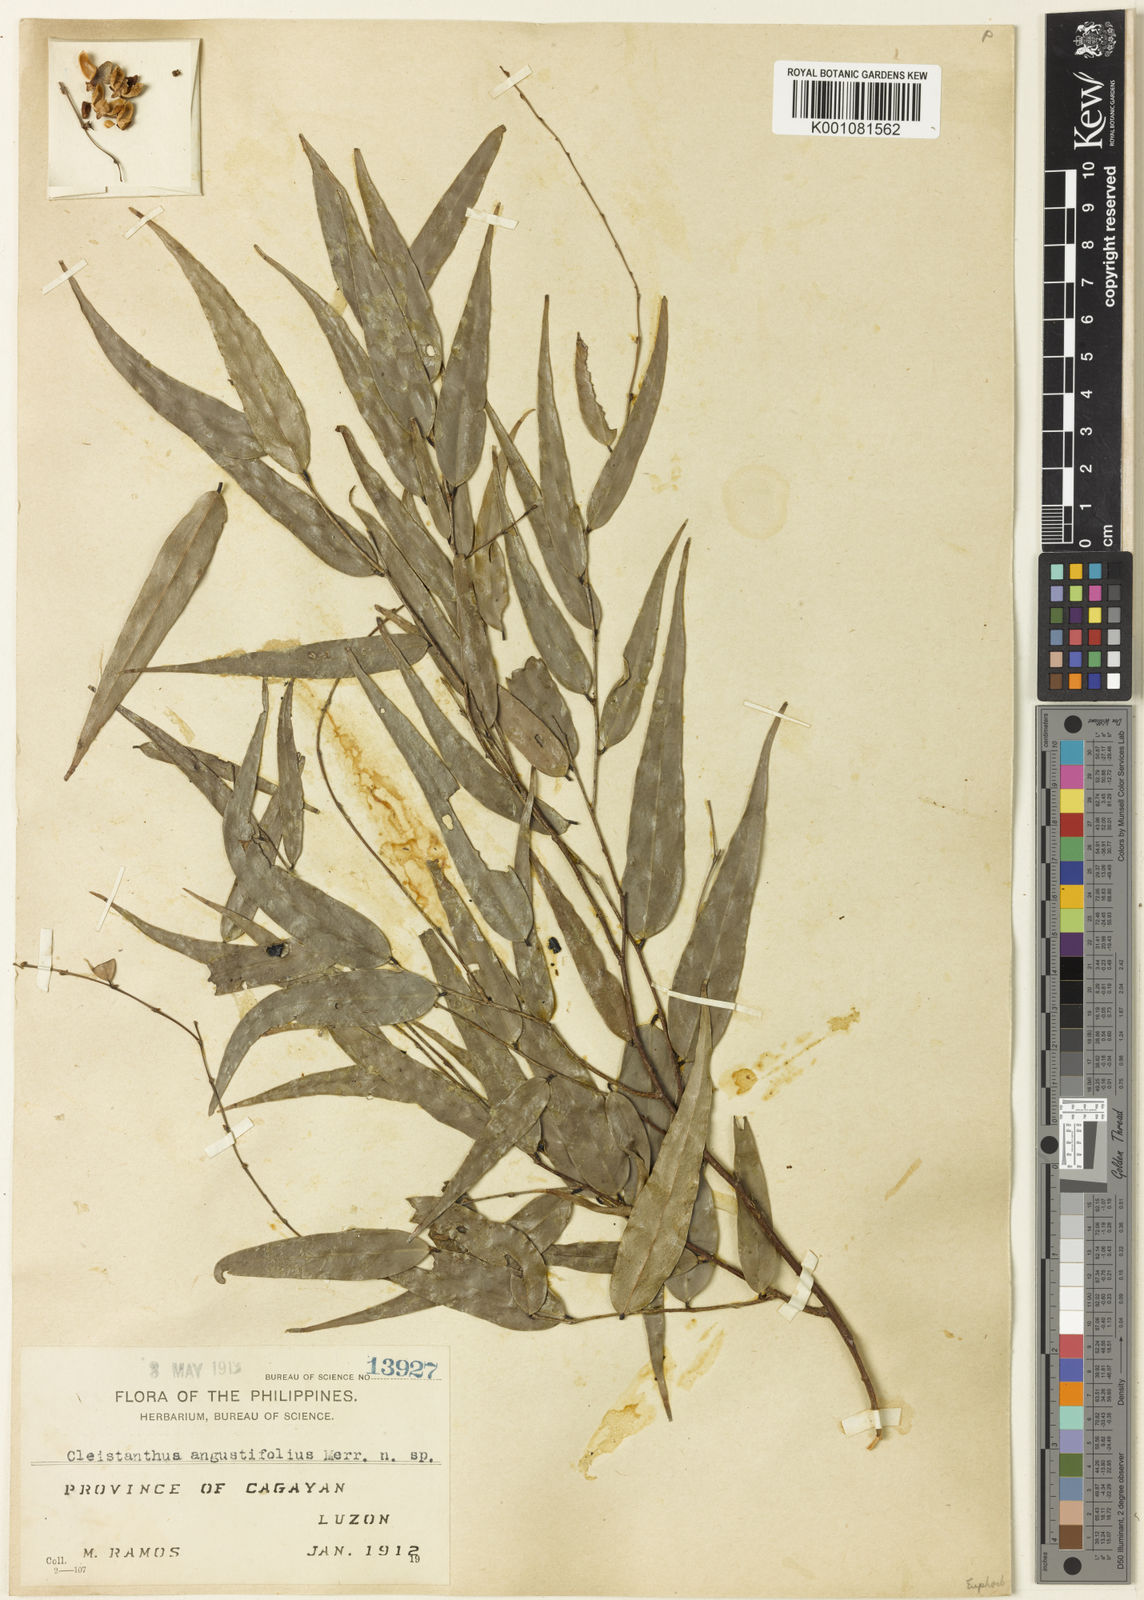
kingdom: Plantae
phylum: Tracheophyta
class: Magnoliopsida
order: Malpighiales
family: Phyllanthaceae
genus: Cleistanthus
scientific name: Cleistanthus angustifolius
